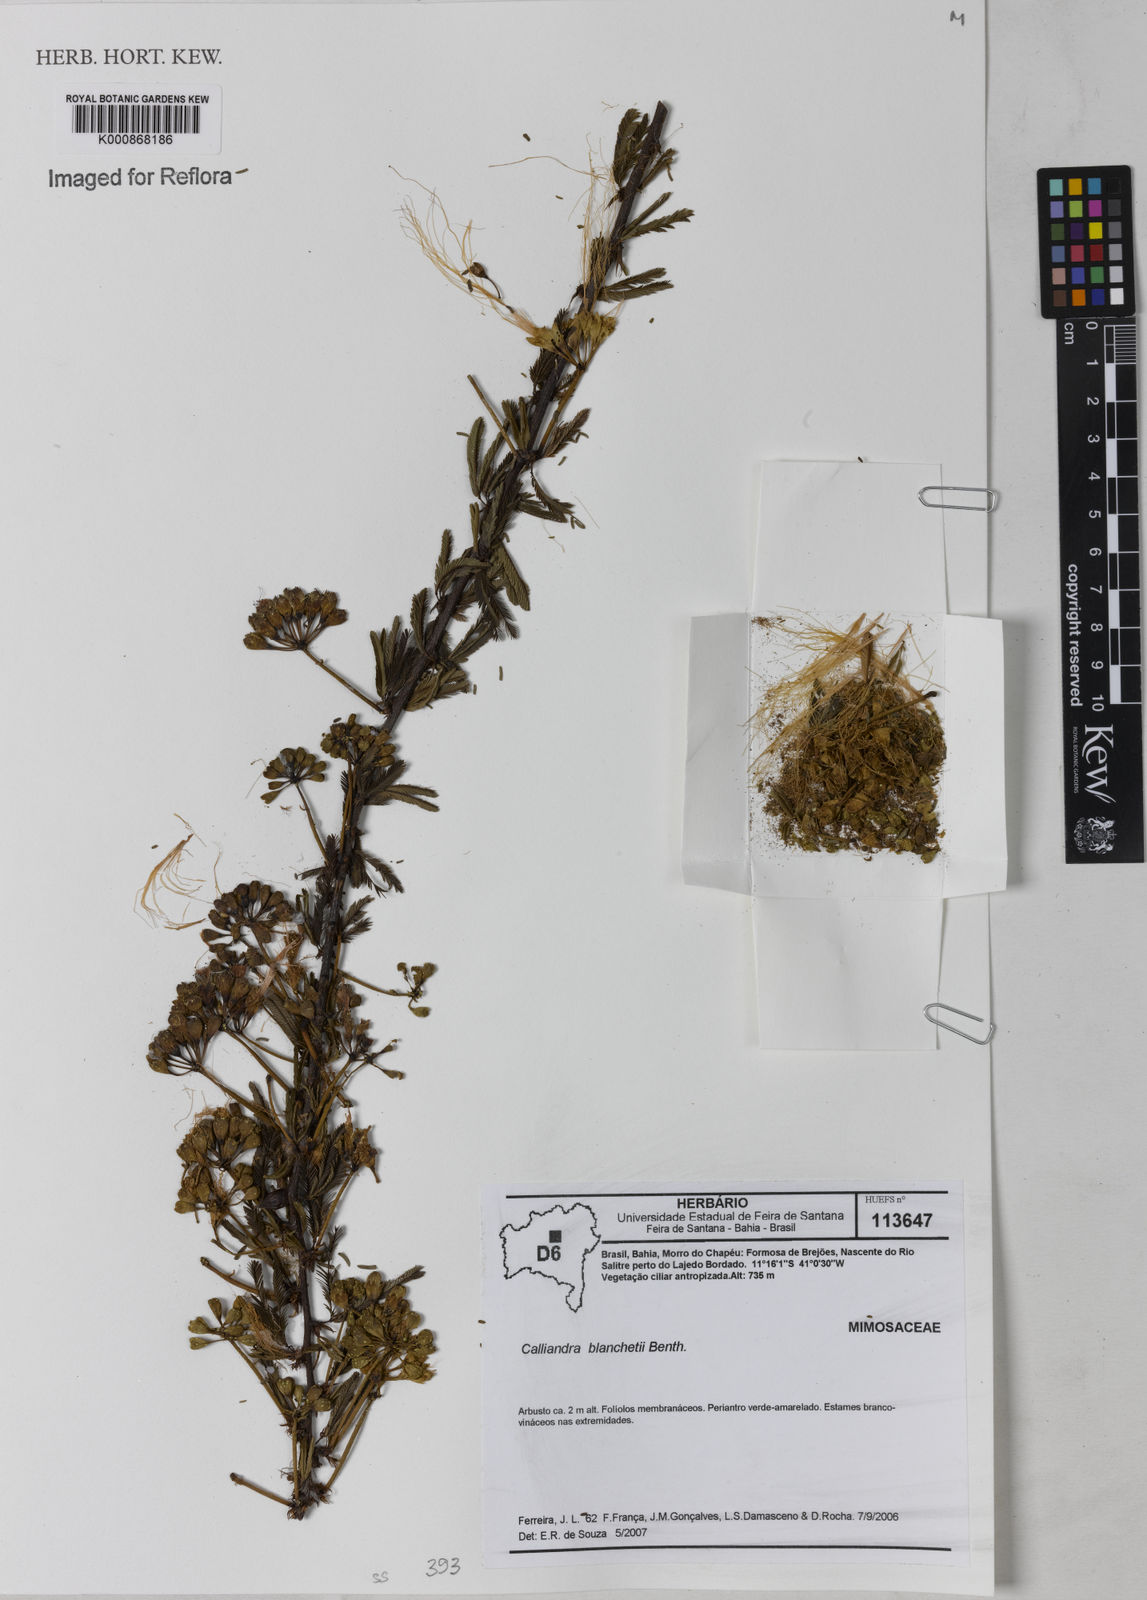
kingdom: Plantae
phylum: Tracheophyta
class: Magnoliopsida
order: Fabales
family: Fabaceae
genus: Calliandra
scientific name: Calliandra blanchetii
